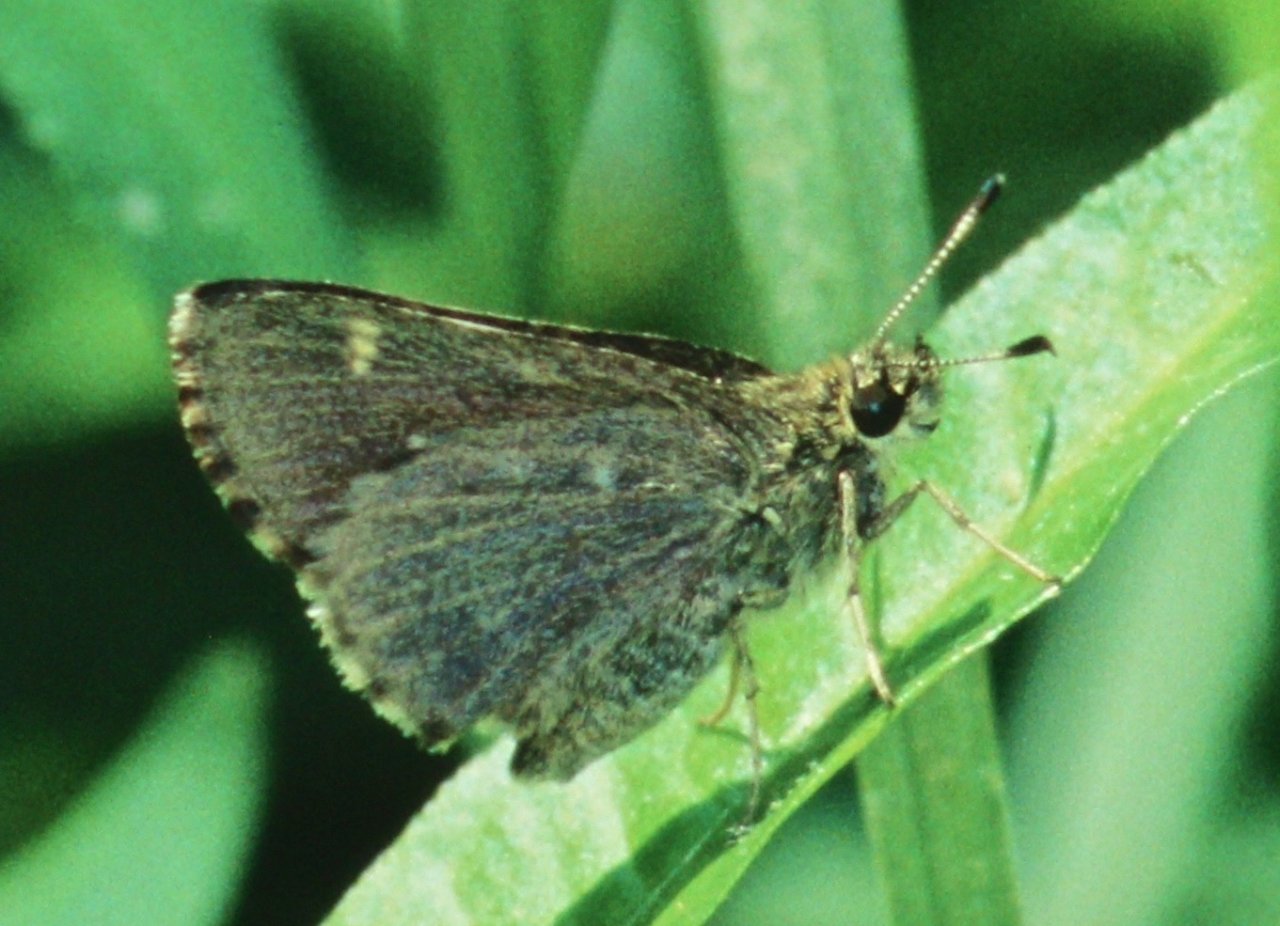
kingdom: Animalia
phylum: Arthropoda
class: Insecta
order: Lepidoptera
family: Hesperiidae
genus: Mastor
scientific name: Mastor hegon
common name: Pepper and Salt Skipper
